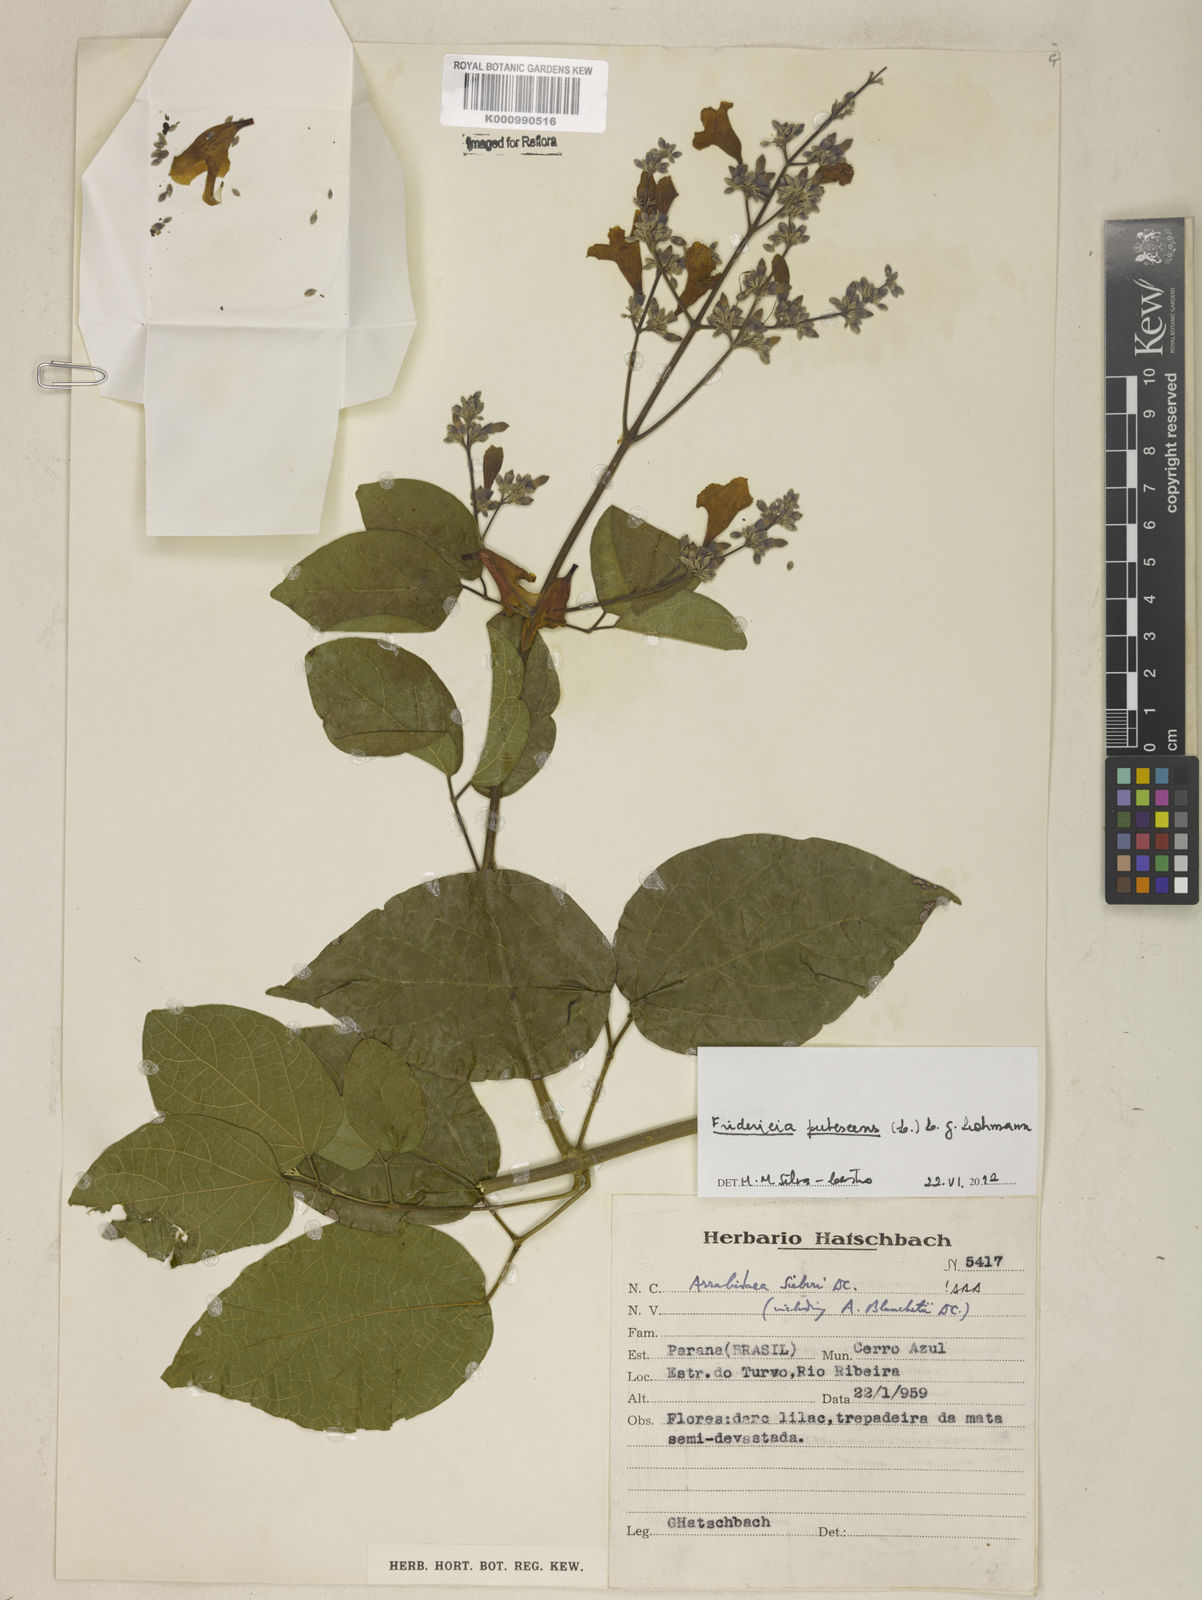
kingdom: Plantae
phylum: Tracheophyta
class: Magnoliopsida
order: Lamiales
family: Bignoniaceae
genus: Fridericia
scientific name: Fridericia pubescens
